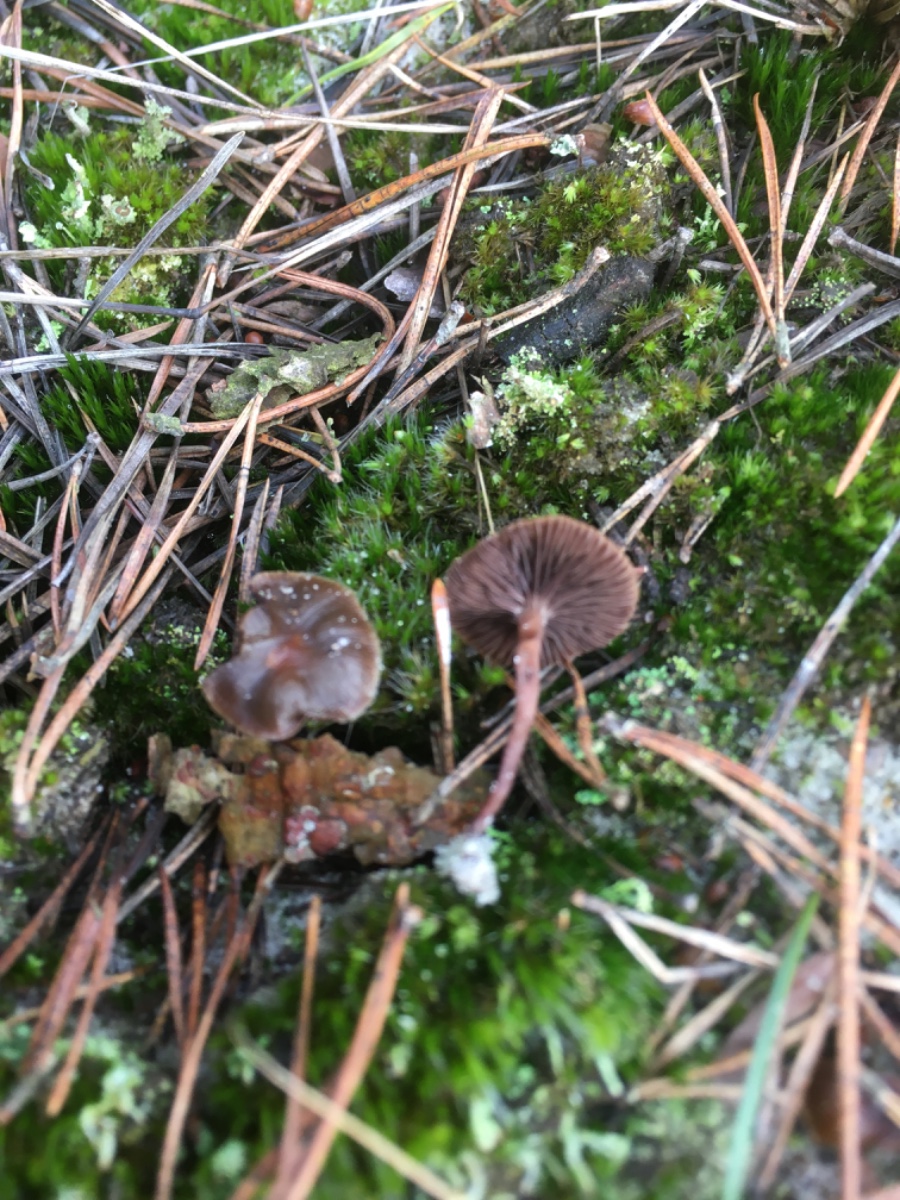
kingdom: Fungi
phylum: Basidiomycota
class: Agaricomycetes
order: Agaricales
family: Strophariaceae
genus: Deconica
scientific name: Deconica montana
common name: rødbrun stråhat
